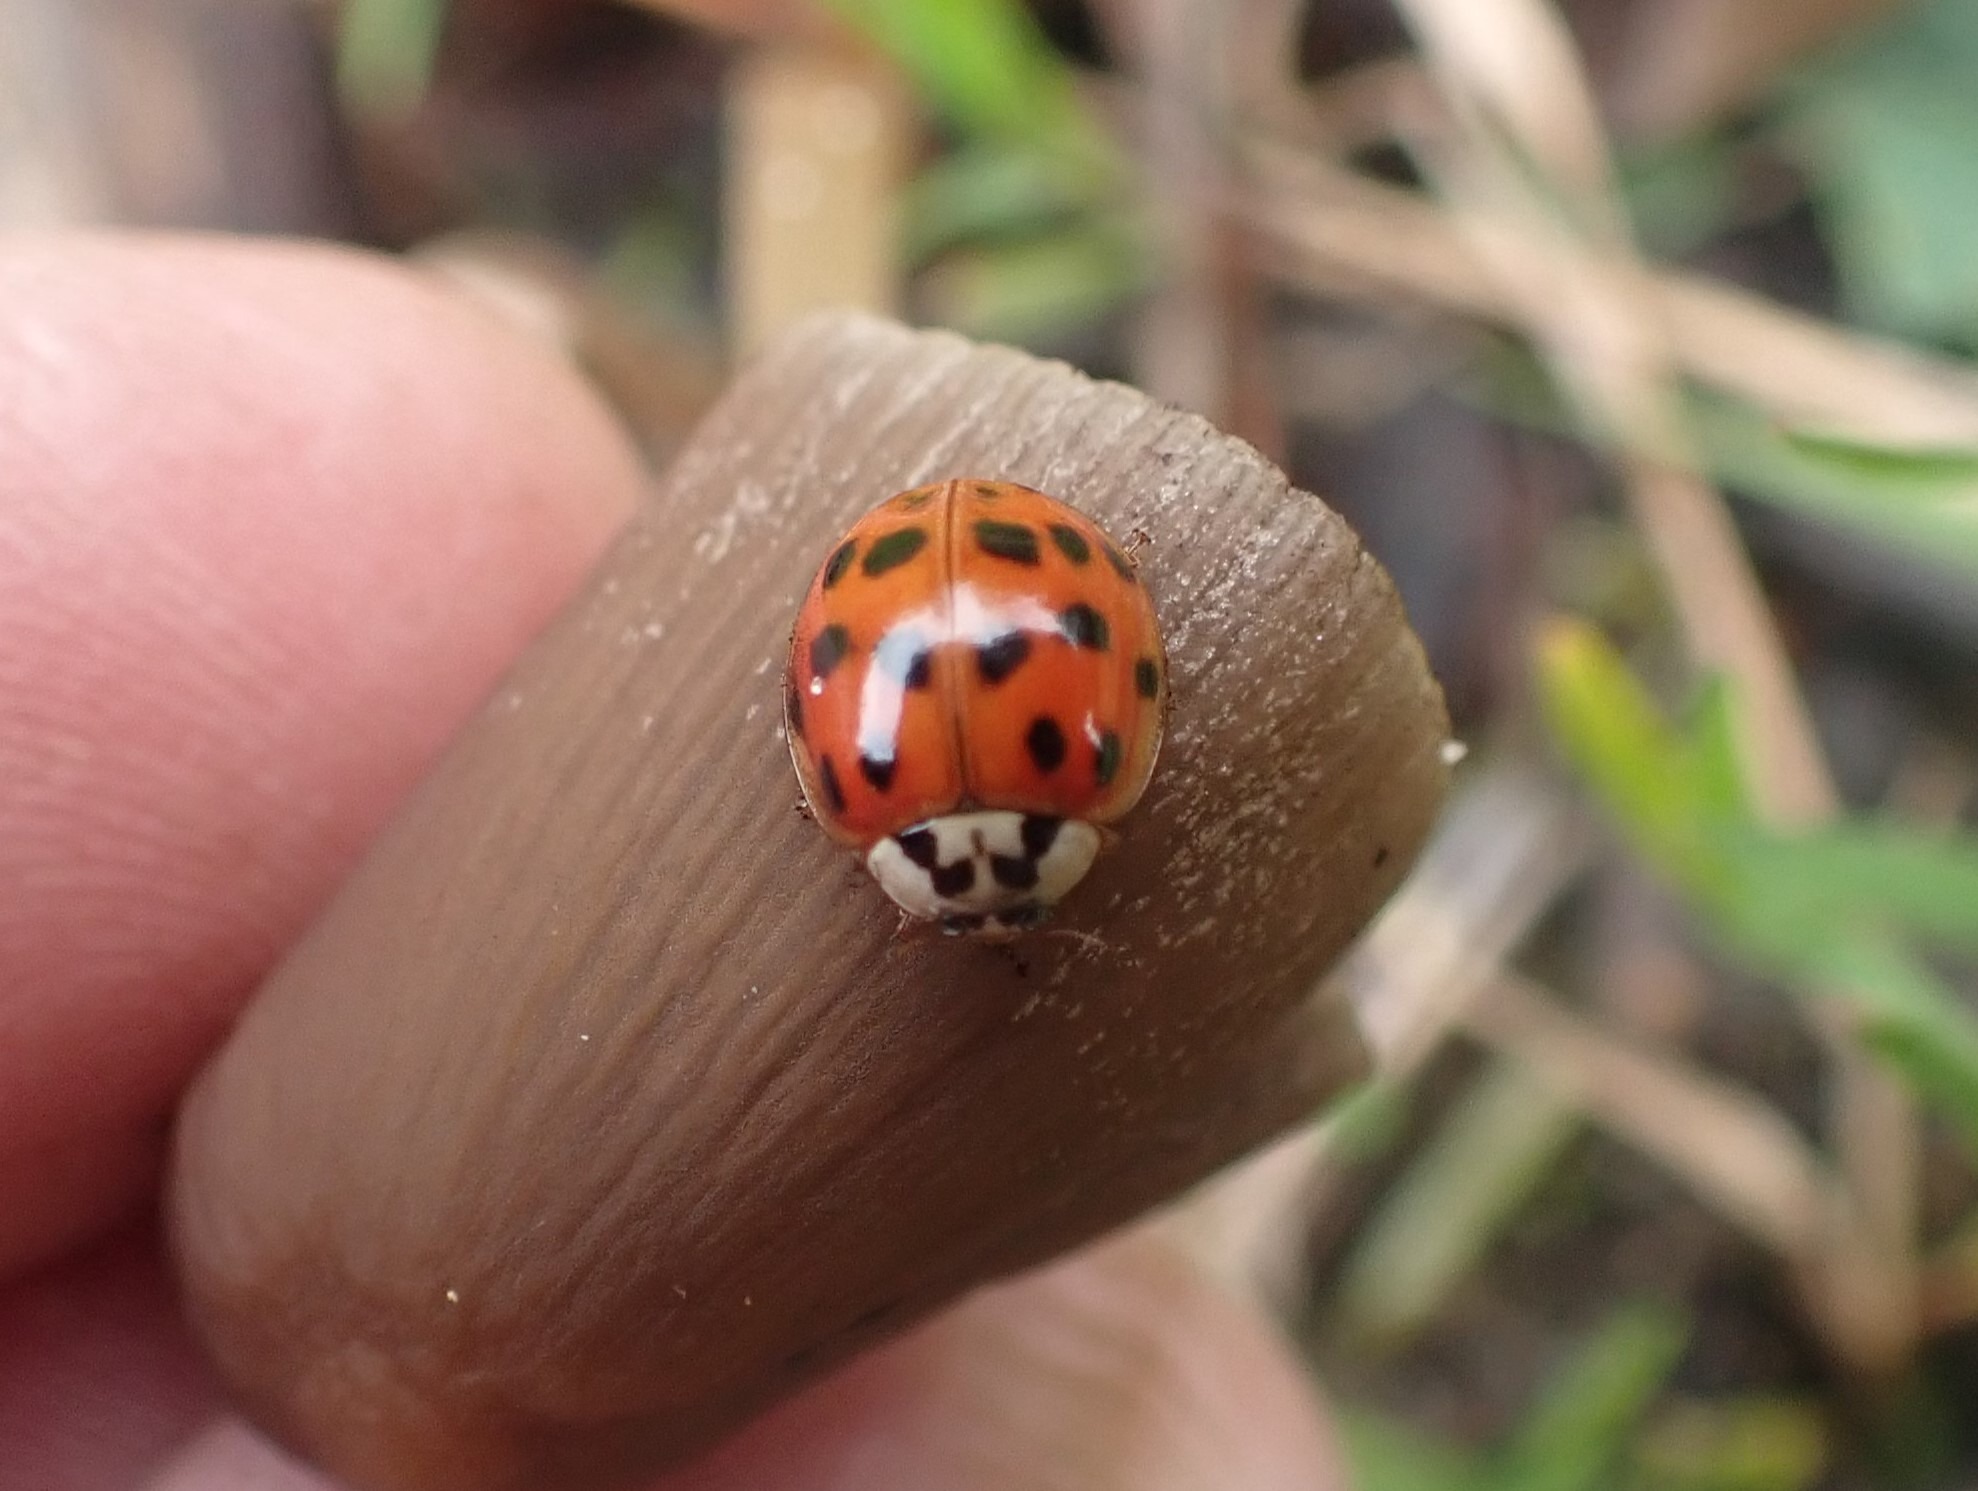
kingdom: Animalia
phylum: Arthropoda
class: Insecta
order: Coleoptera
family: Coccinellidae
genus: Harmonia
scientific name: Harmonia axyridis
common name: Harlekinmariehøne
